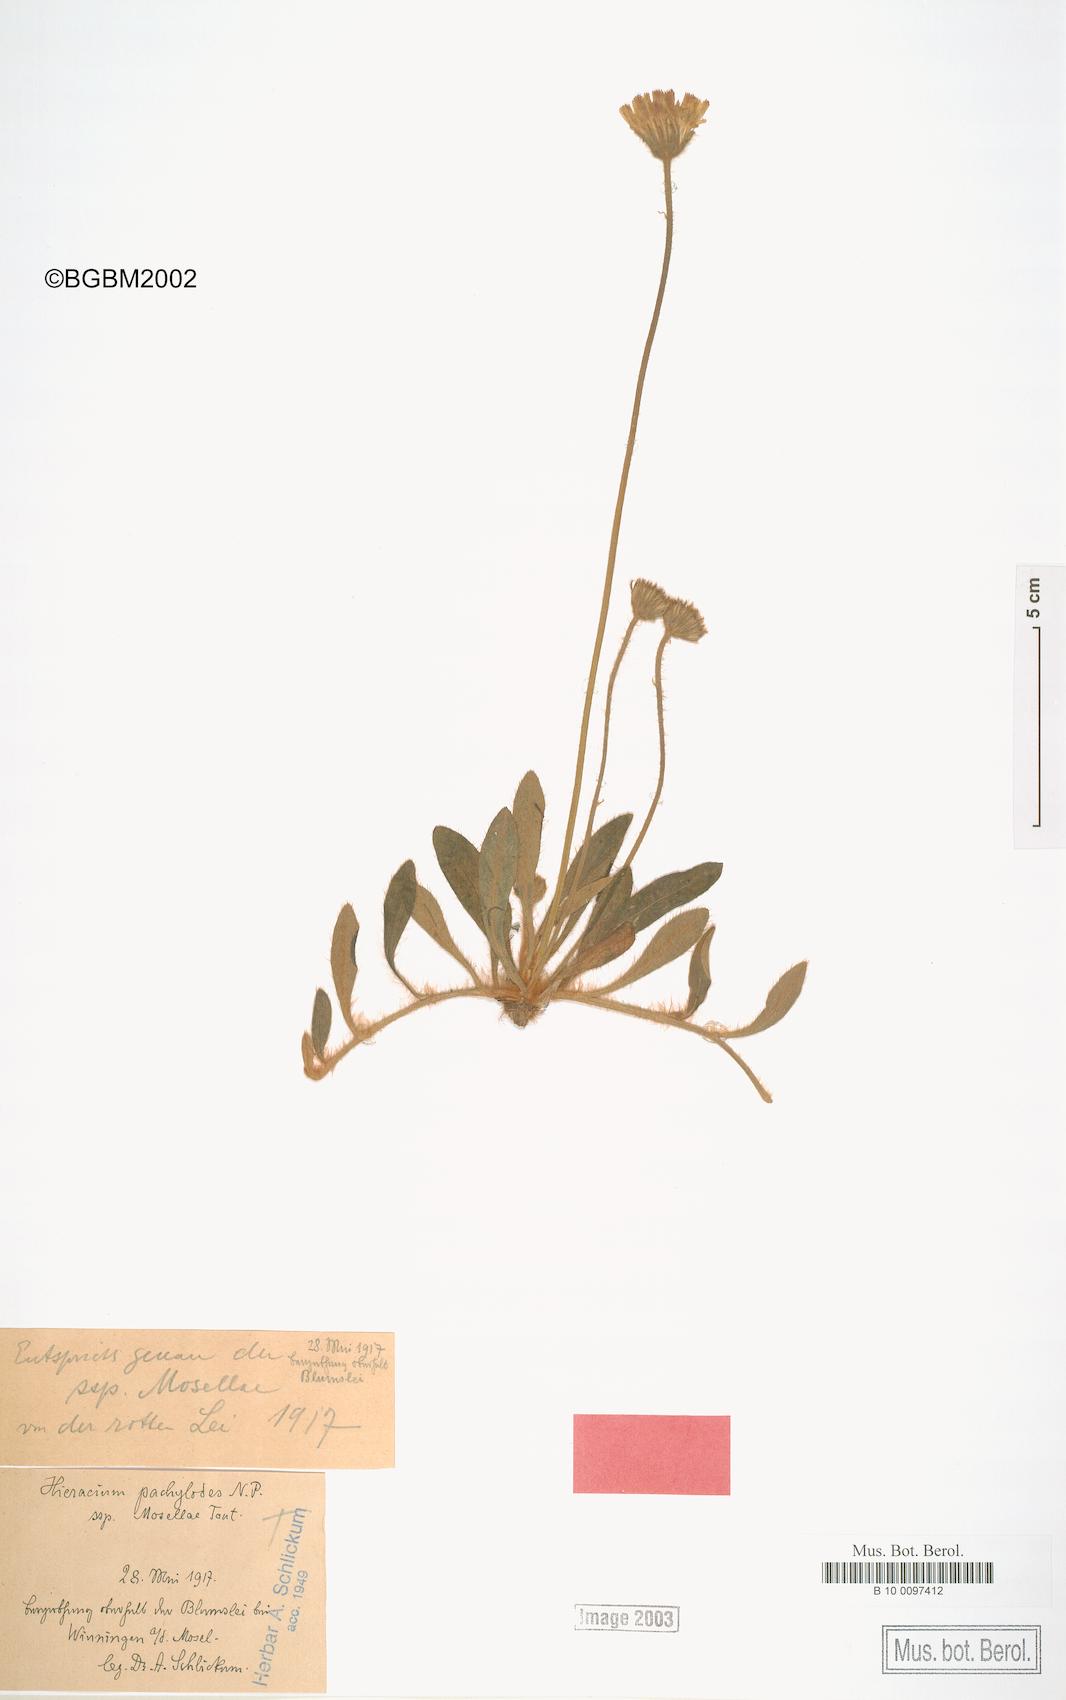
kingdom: Plantae
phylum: Tracheophyta
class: Magnoliopsida
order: Asterales
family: Asteraceae
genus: Pilosella
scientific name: Pilosella longisquama
